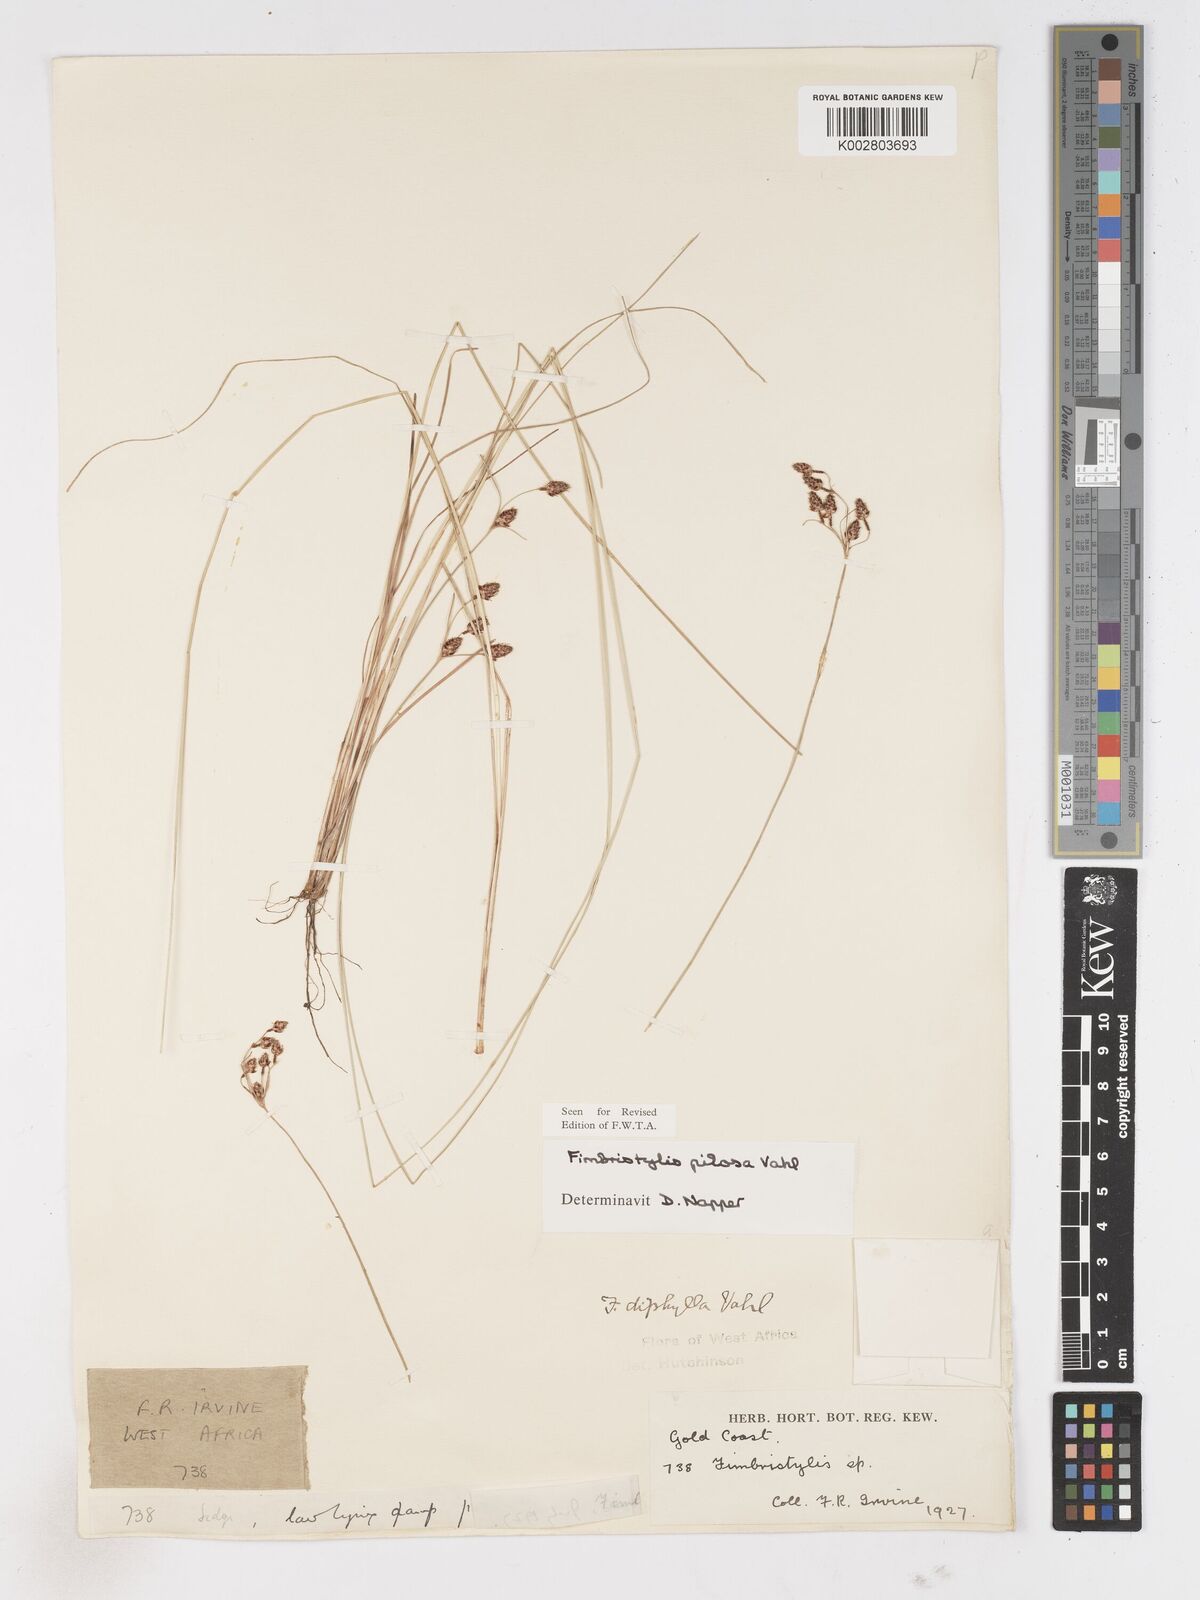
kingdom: Plantae
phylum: Tracheophyta
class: Liliopsida
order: Poales
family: Cyperaceae
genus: Fimbristylis
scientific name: Fimbristylis pilosa
